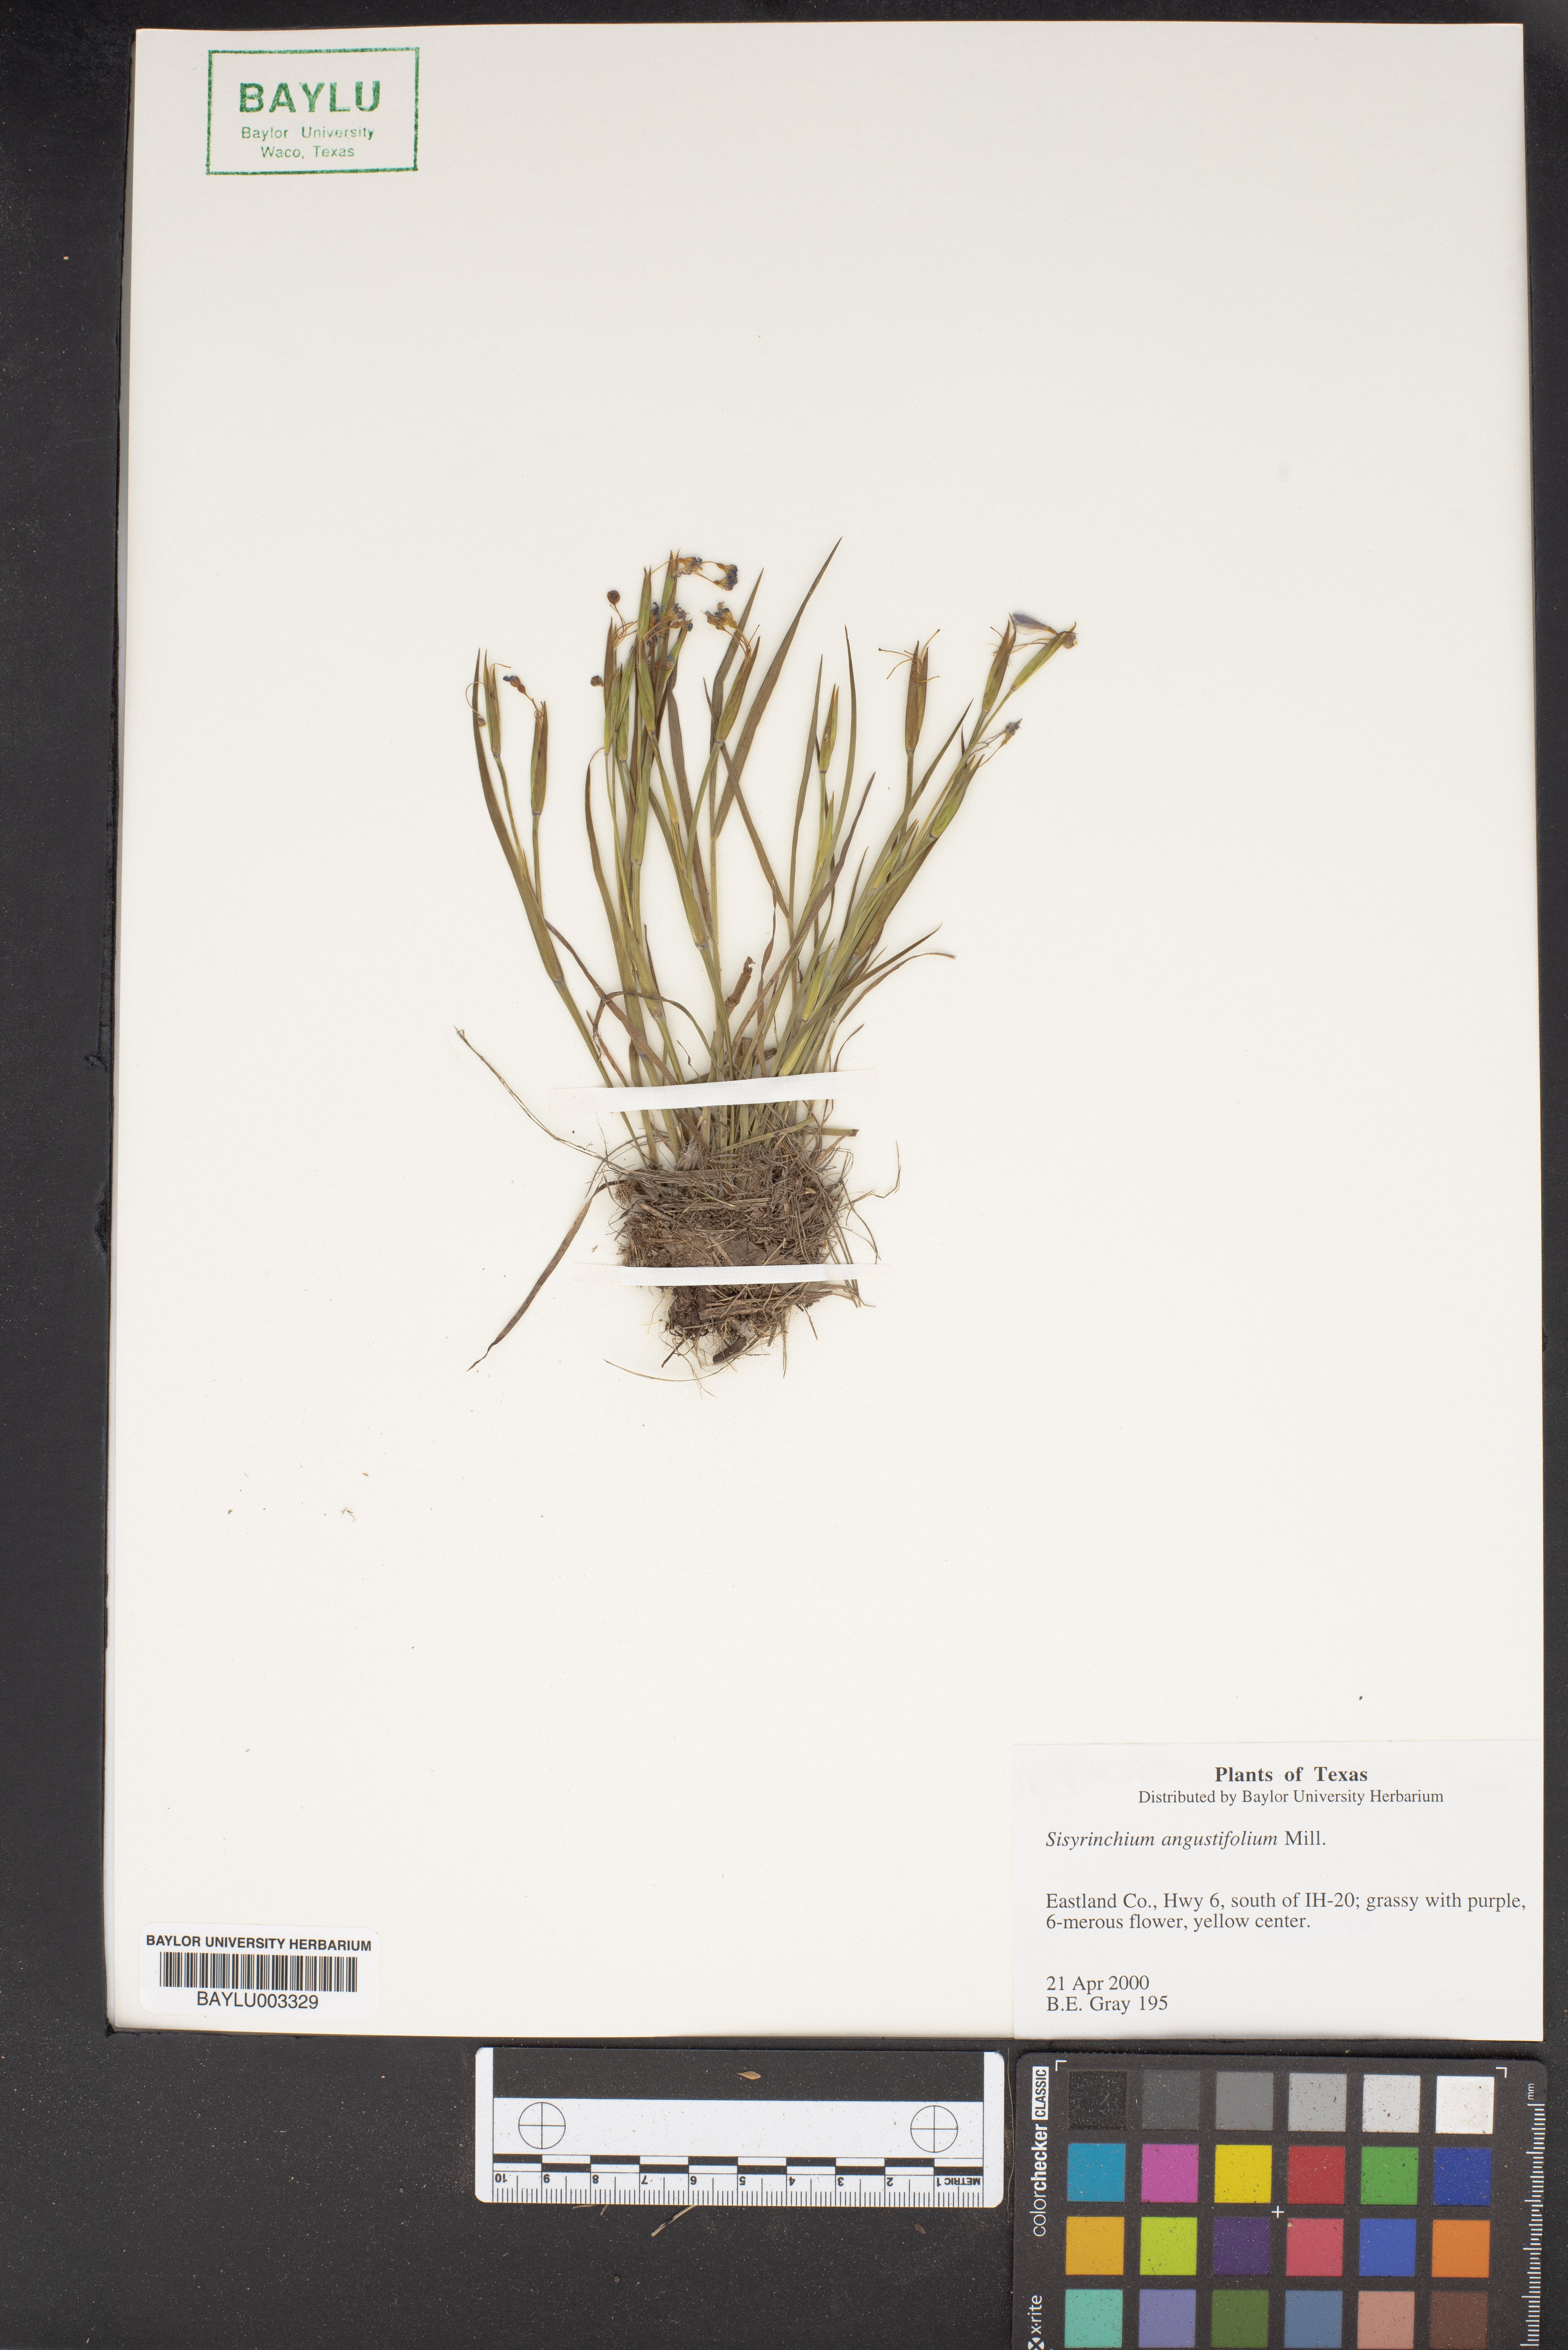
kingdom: Plantae
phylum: Tracheophyta
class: Liliopsida
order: Asparagales
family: Iridaceae
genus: Sisyrinchium
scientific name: Sisyrinchium angustifolium
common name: Narrow-leaf blue-eyed-grass
